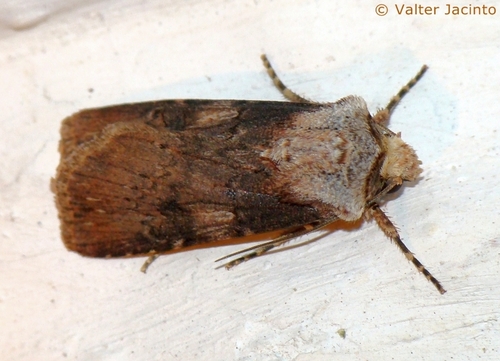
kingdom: Animalia
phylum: Arthropoda
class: Insecta
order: Lepidoptera
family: Noctuidae
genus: Agrotis
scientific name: Agrotis catalaunensis
